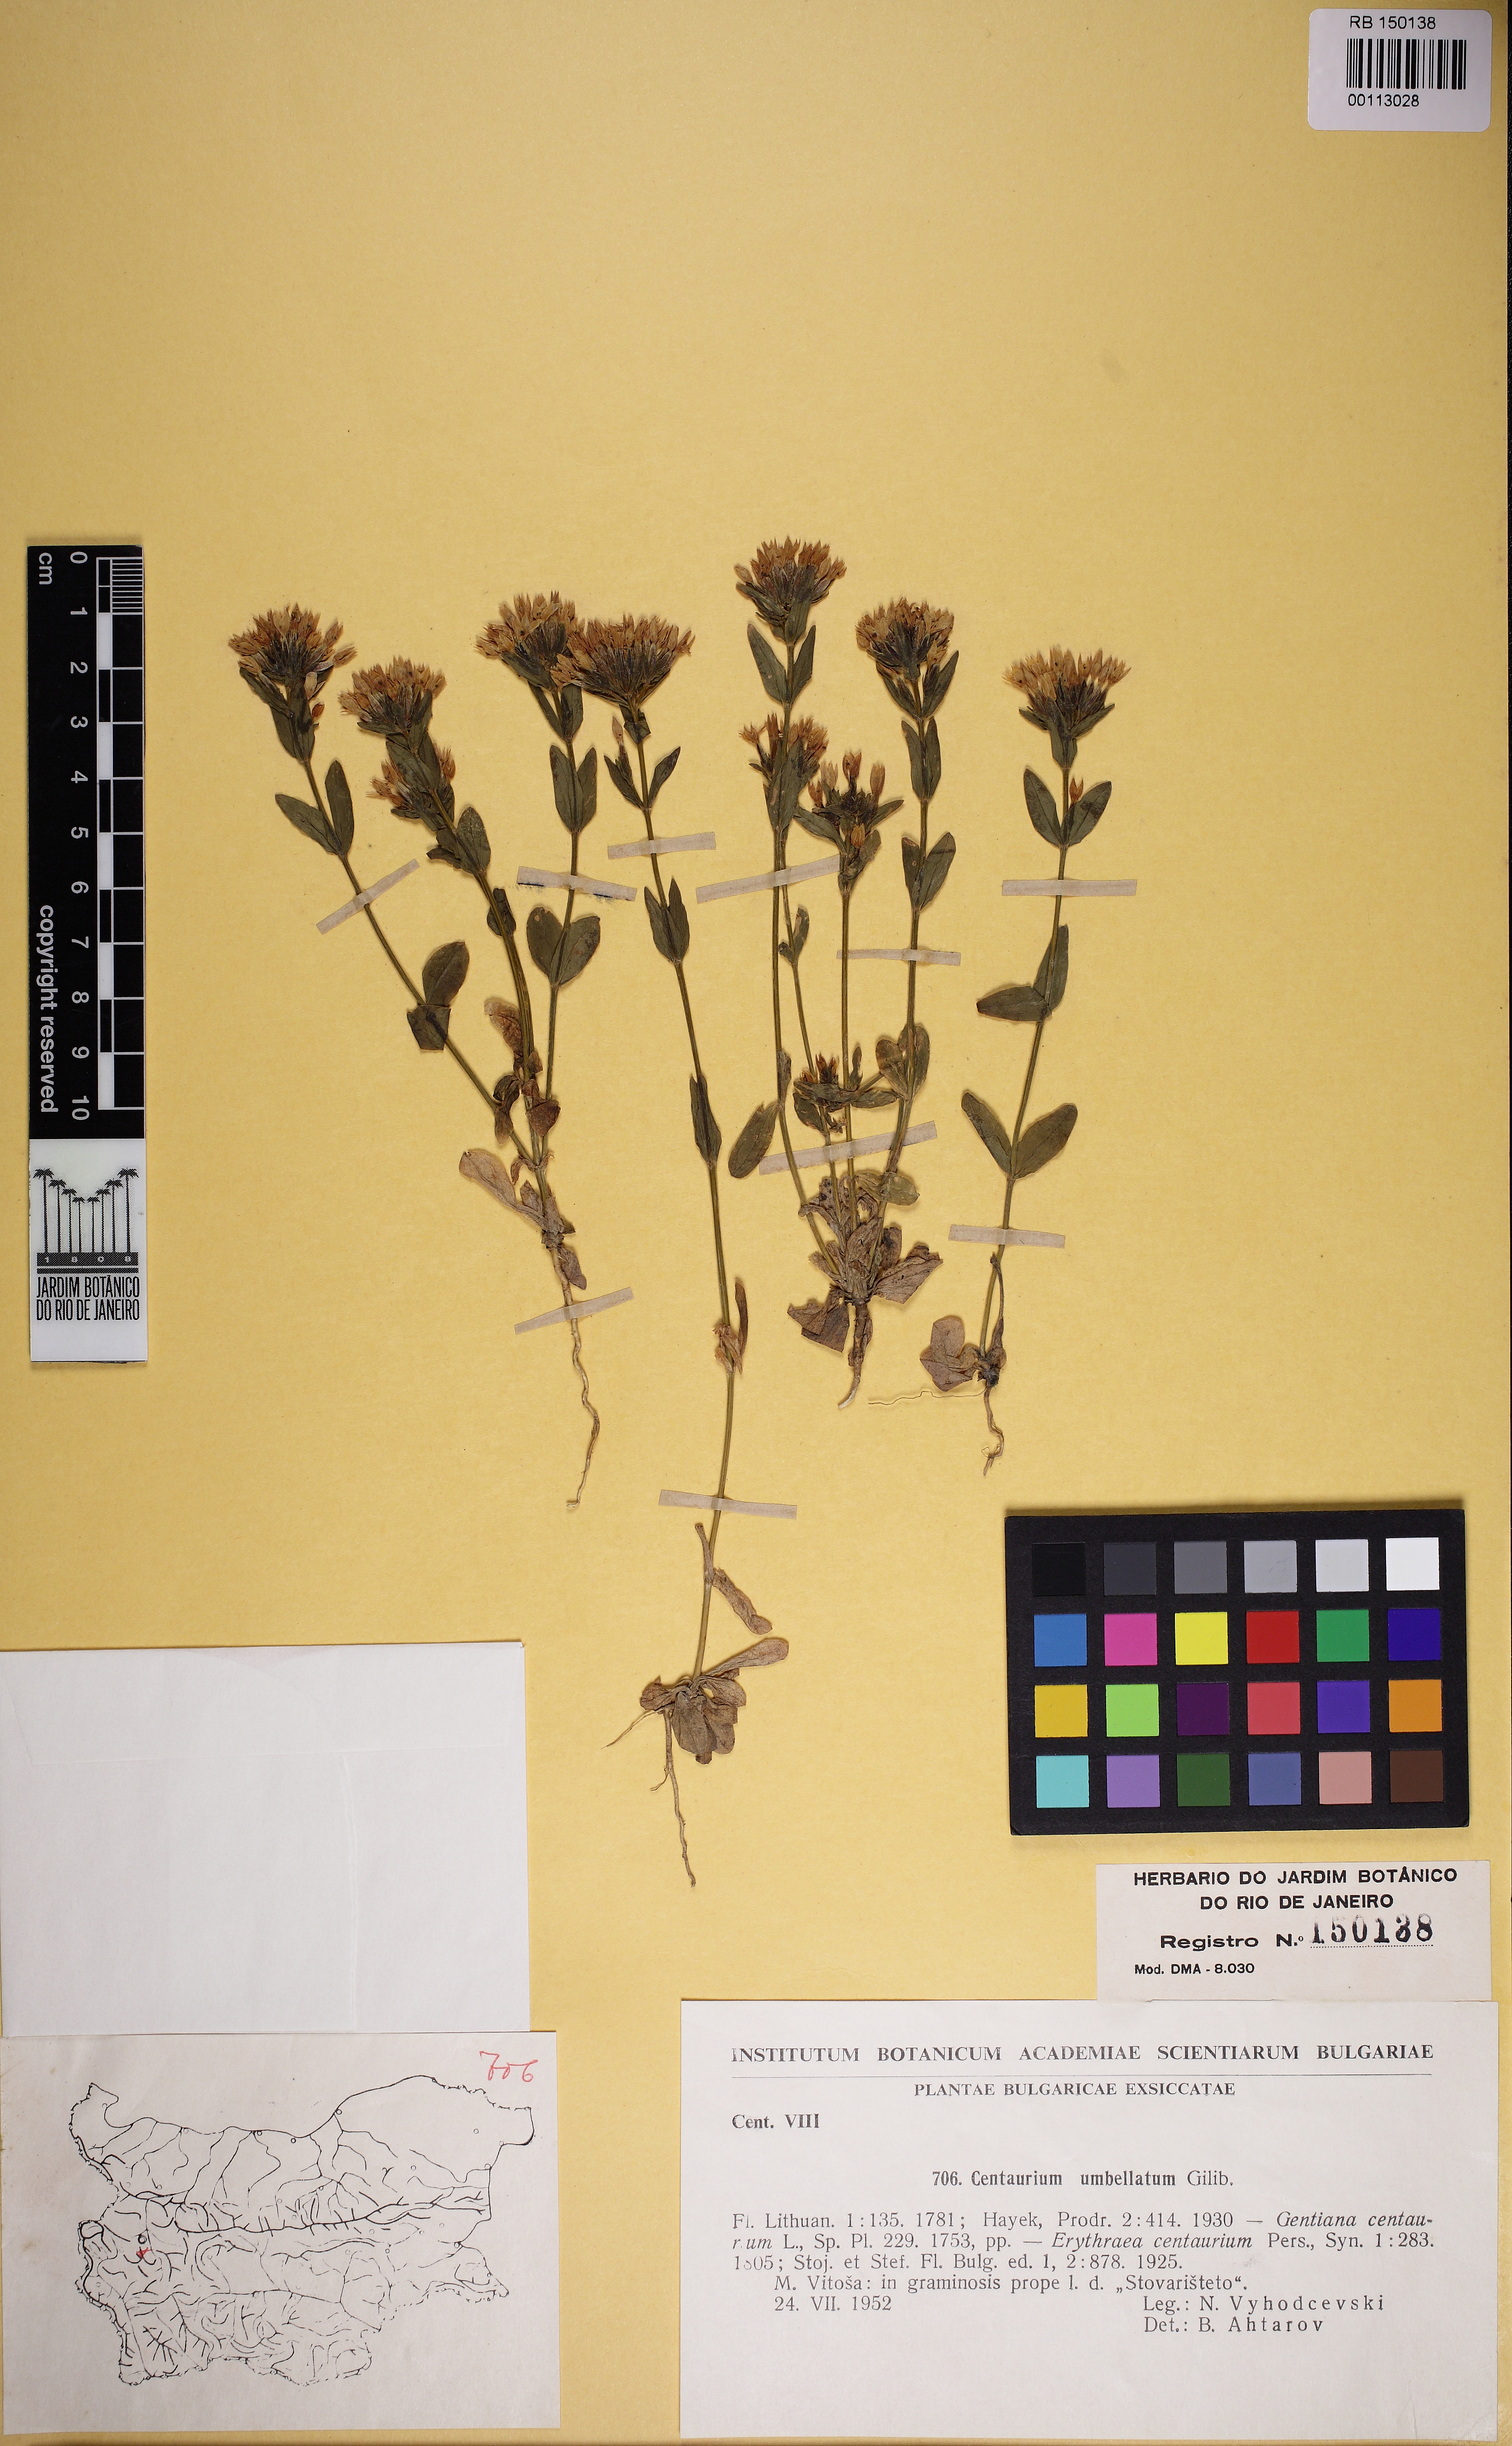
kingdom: Plantae
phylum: Tracheophyta
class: Magnoliopsida
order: Gentianales
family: Gentianaceae
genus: Centaurium
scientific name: Centaurium erythraea
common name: Common centaury
